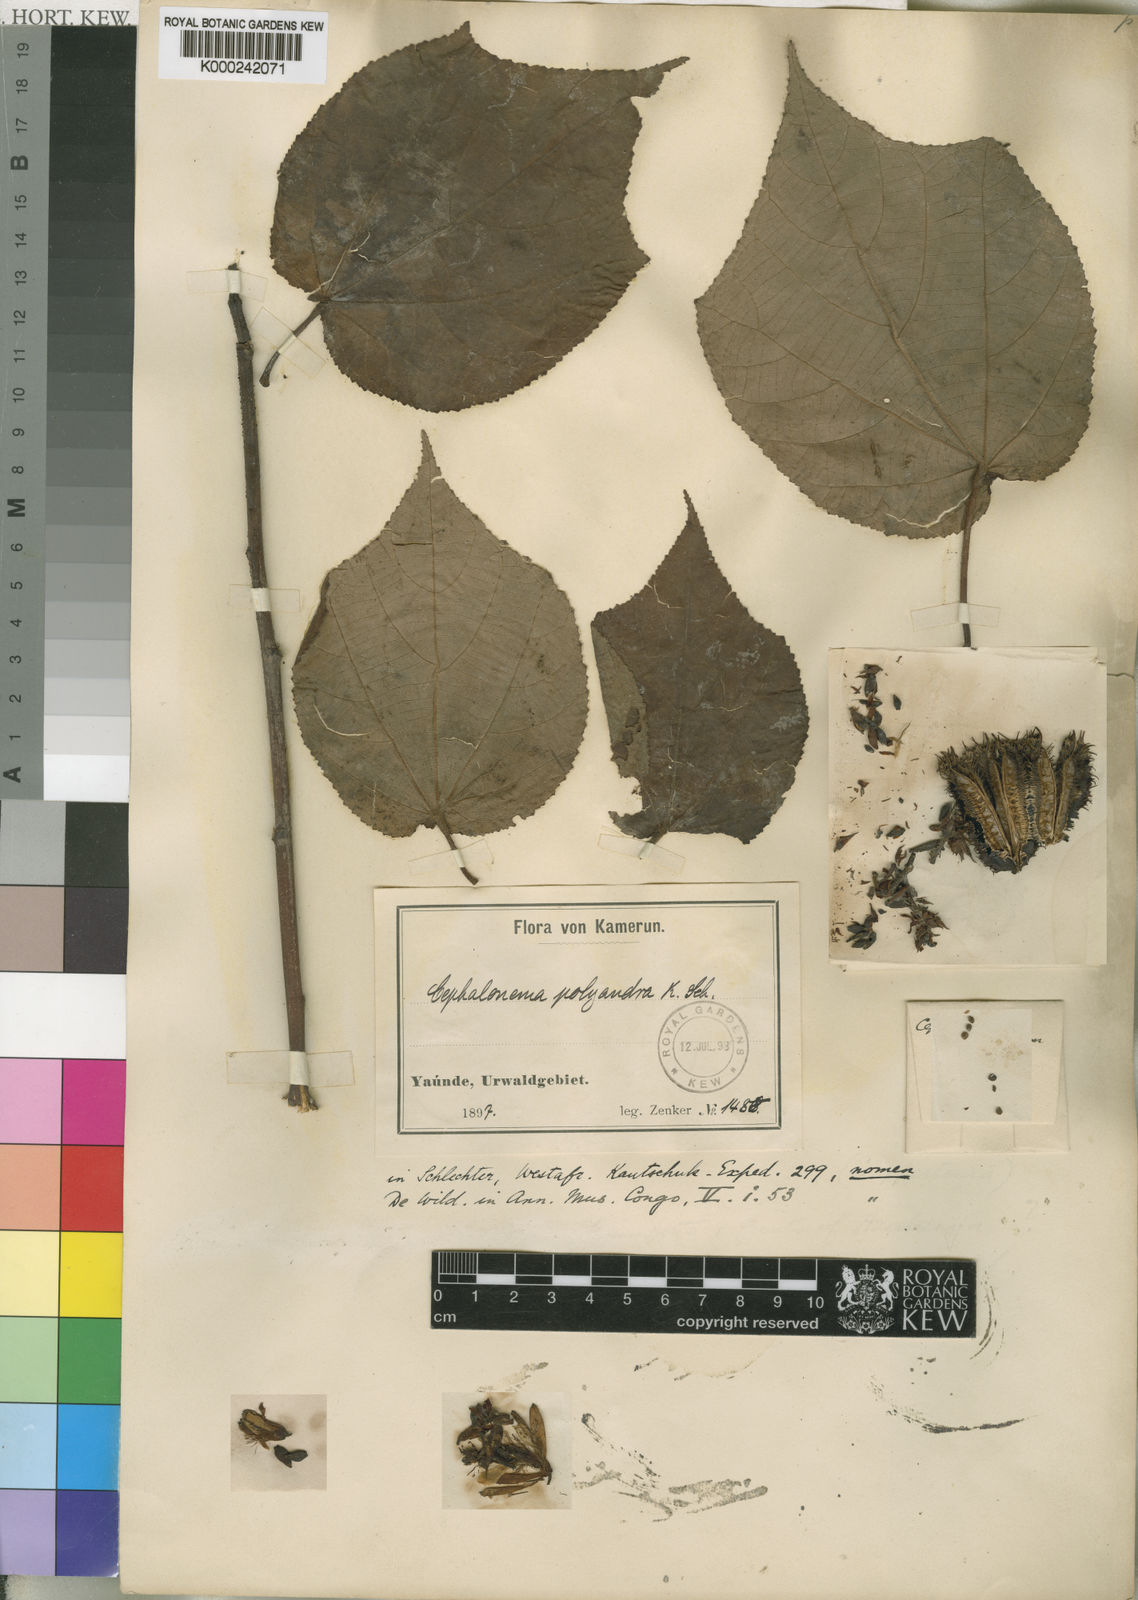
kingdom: Plantae
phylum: Tracheophyta
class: Magnoliopsida
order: Malvales
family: Tiliaceae
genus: Cephalonema
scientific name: Cephalonema
